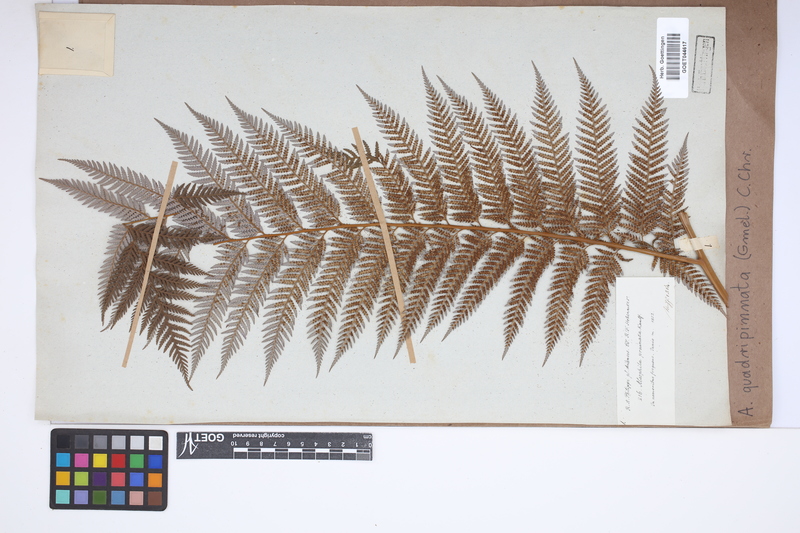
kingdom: Plantae
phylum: Tracheophyta
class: Polypodiopsida
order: Cyatheales
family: Dicksoniaceae
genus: Lophosoria
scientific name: Lophosoria quadripinnata
